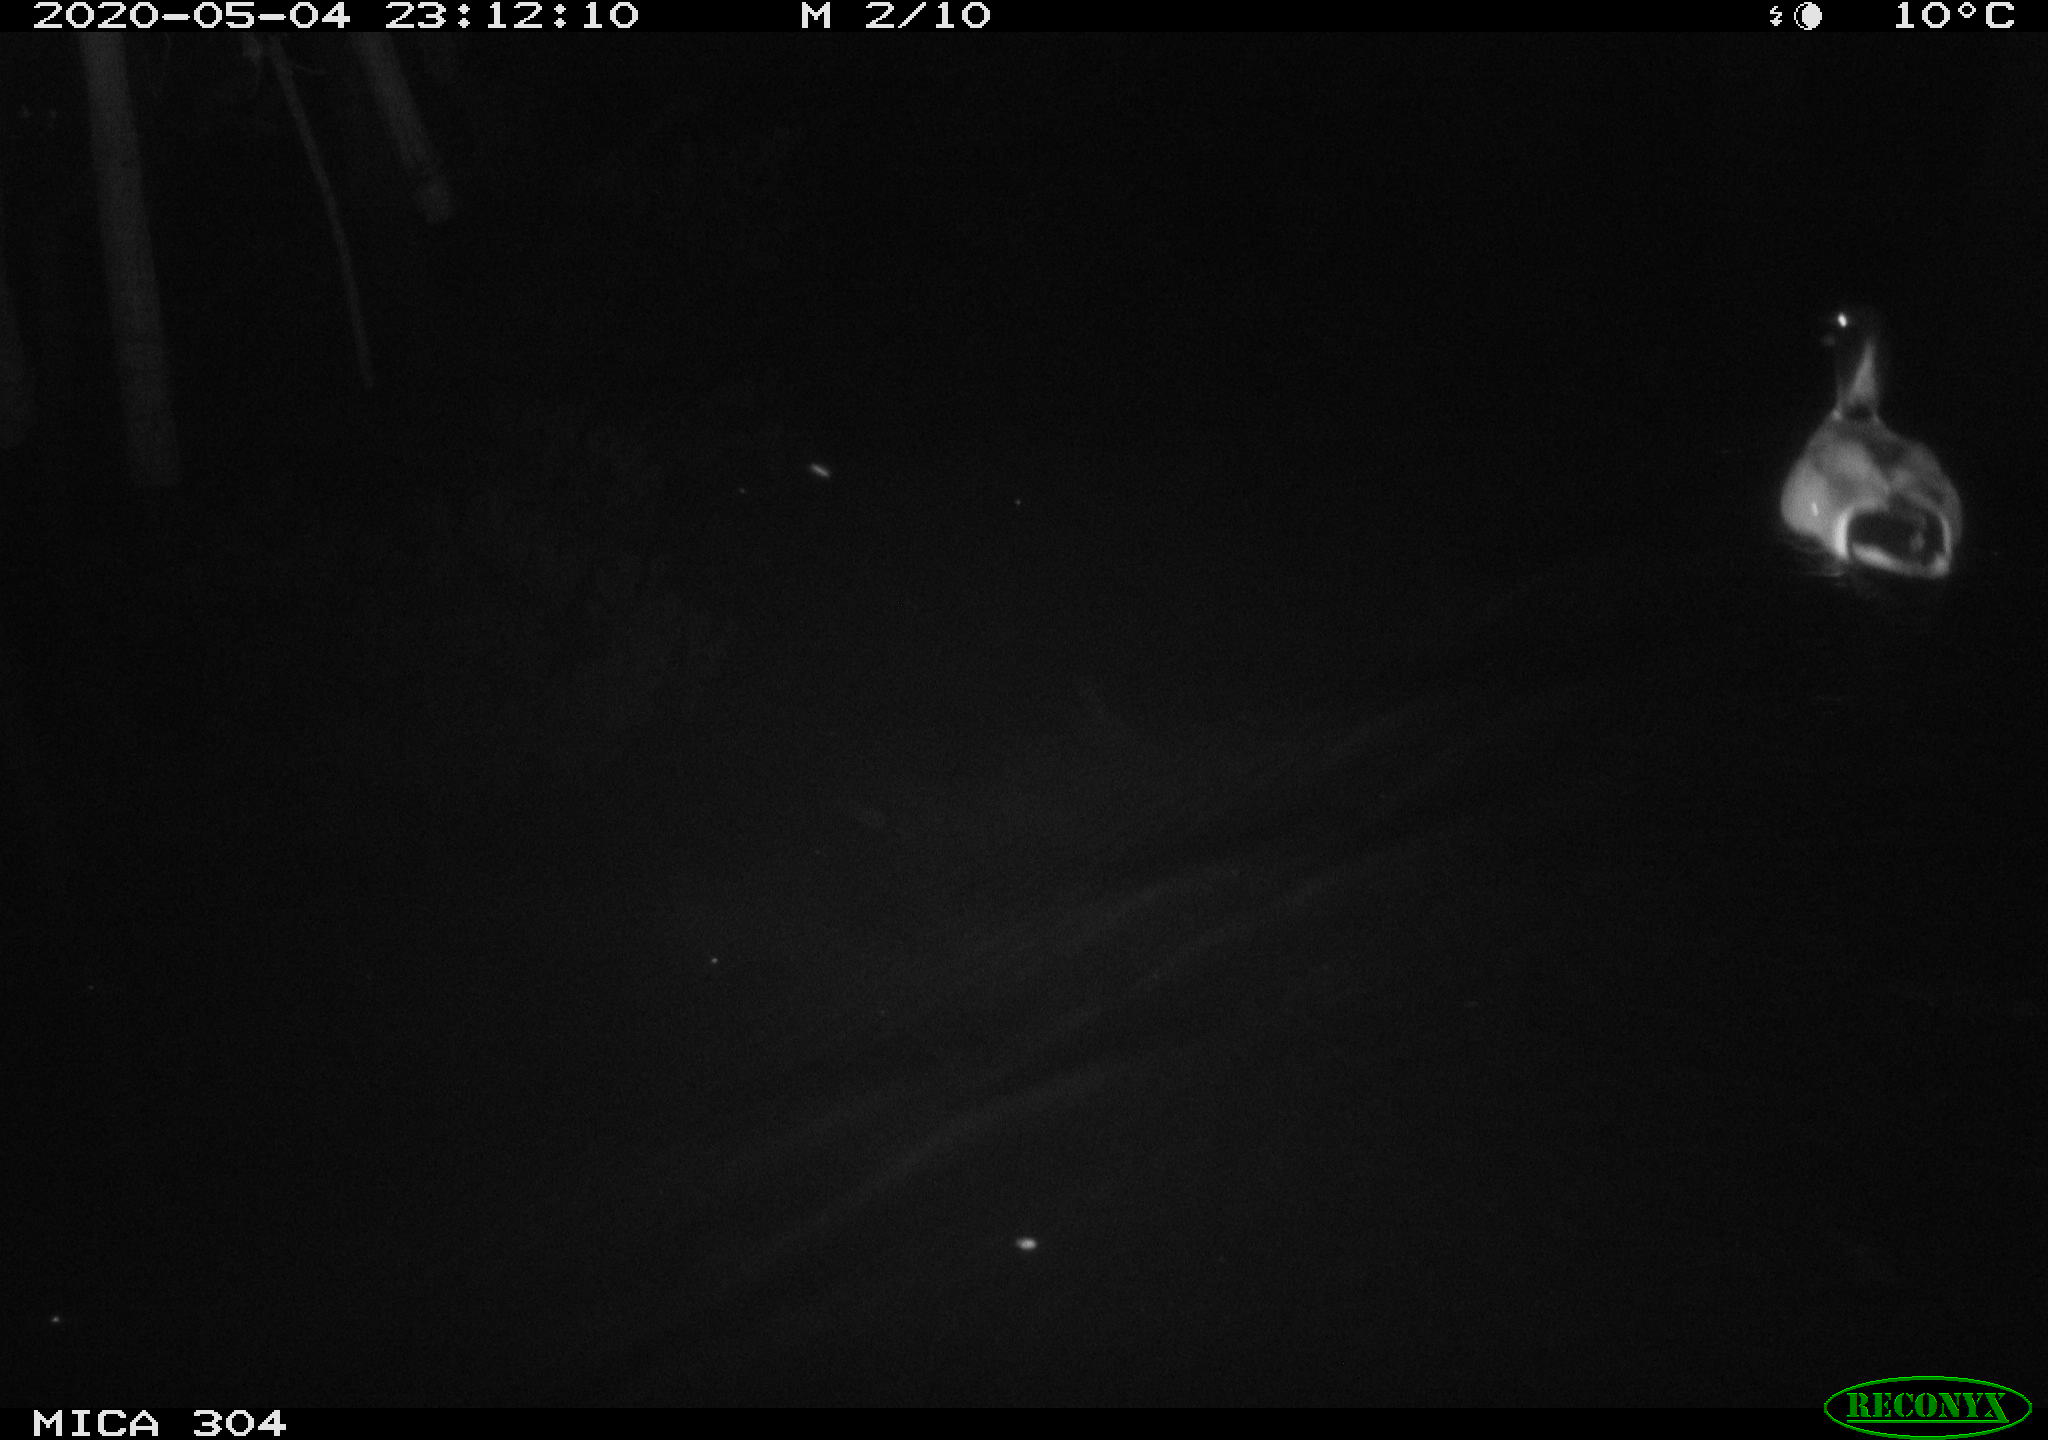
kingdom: Animalia
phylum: Chordata
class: Aves
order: Anseriformes
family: Anatidae
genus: Anas
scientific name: Anas platyrhynchos
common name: Mallard
